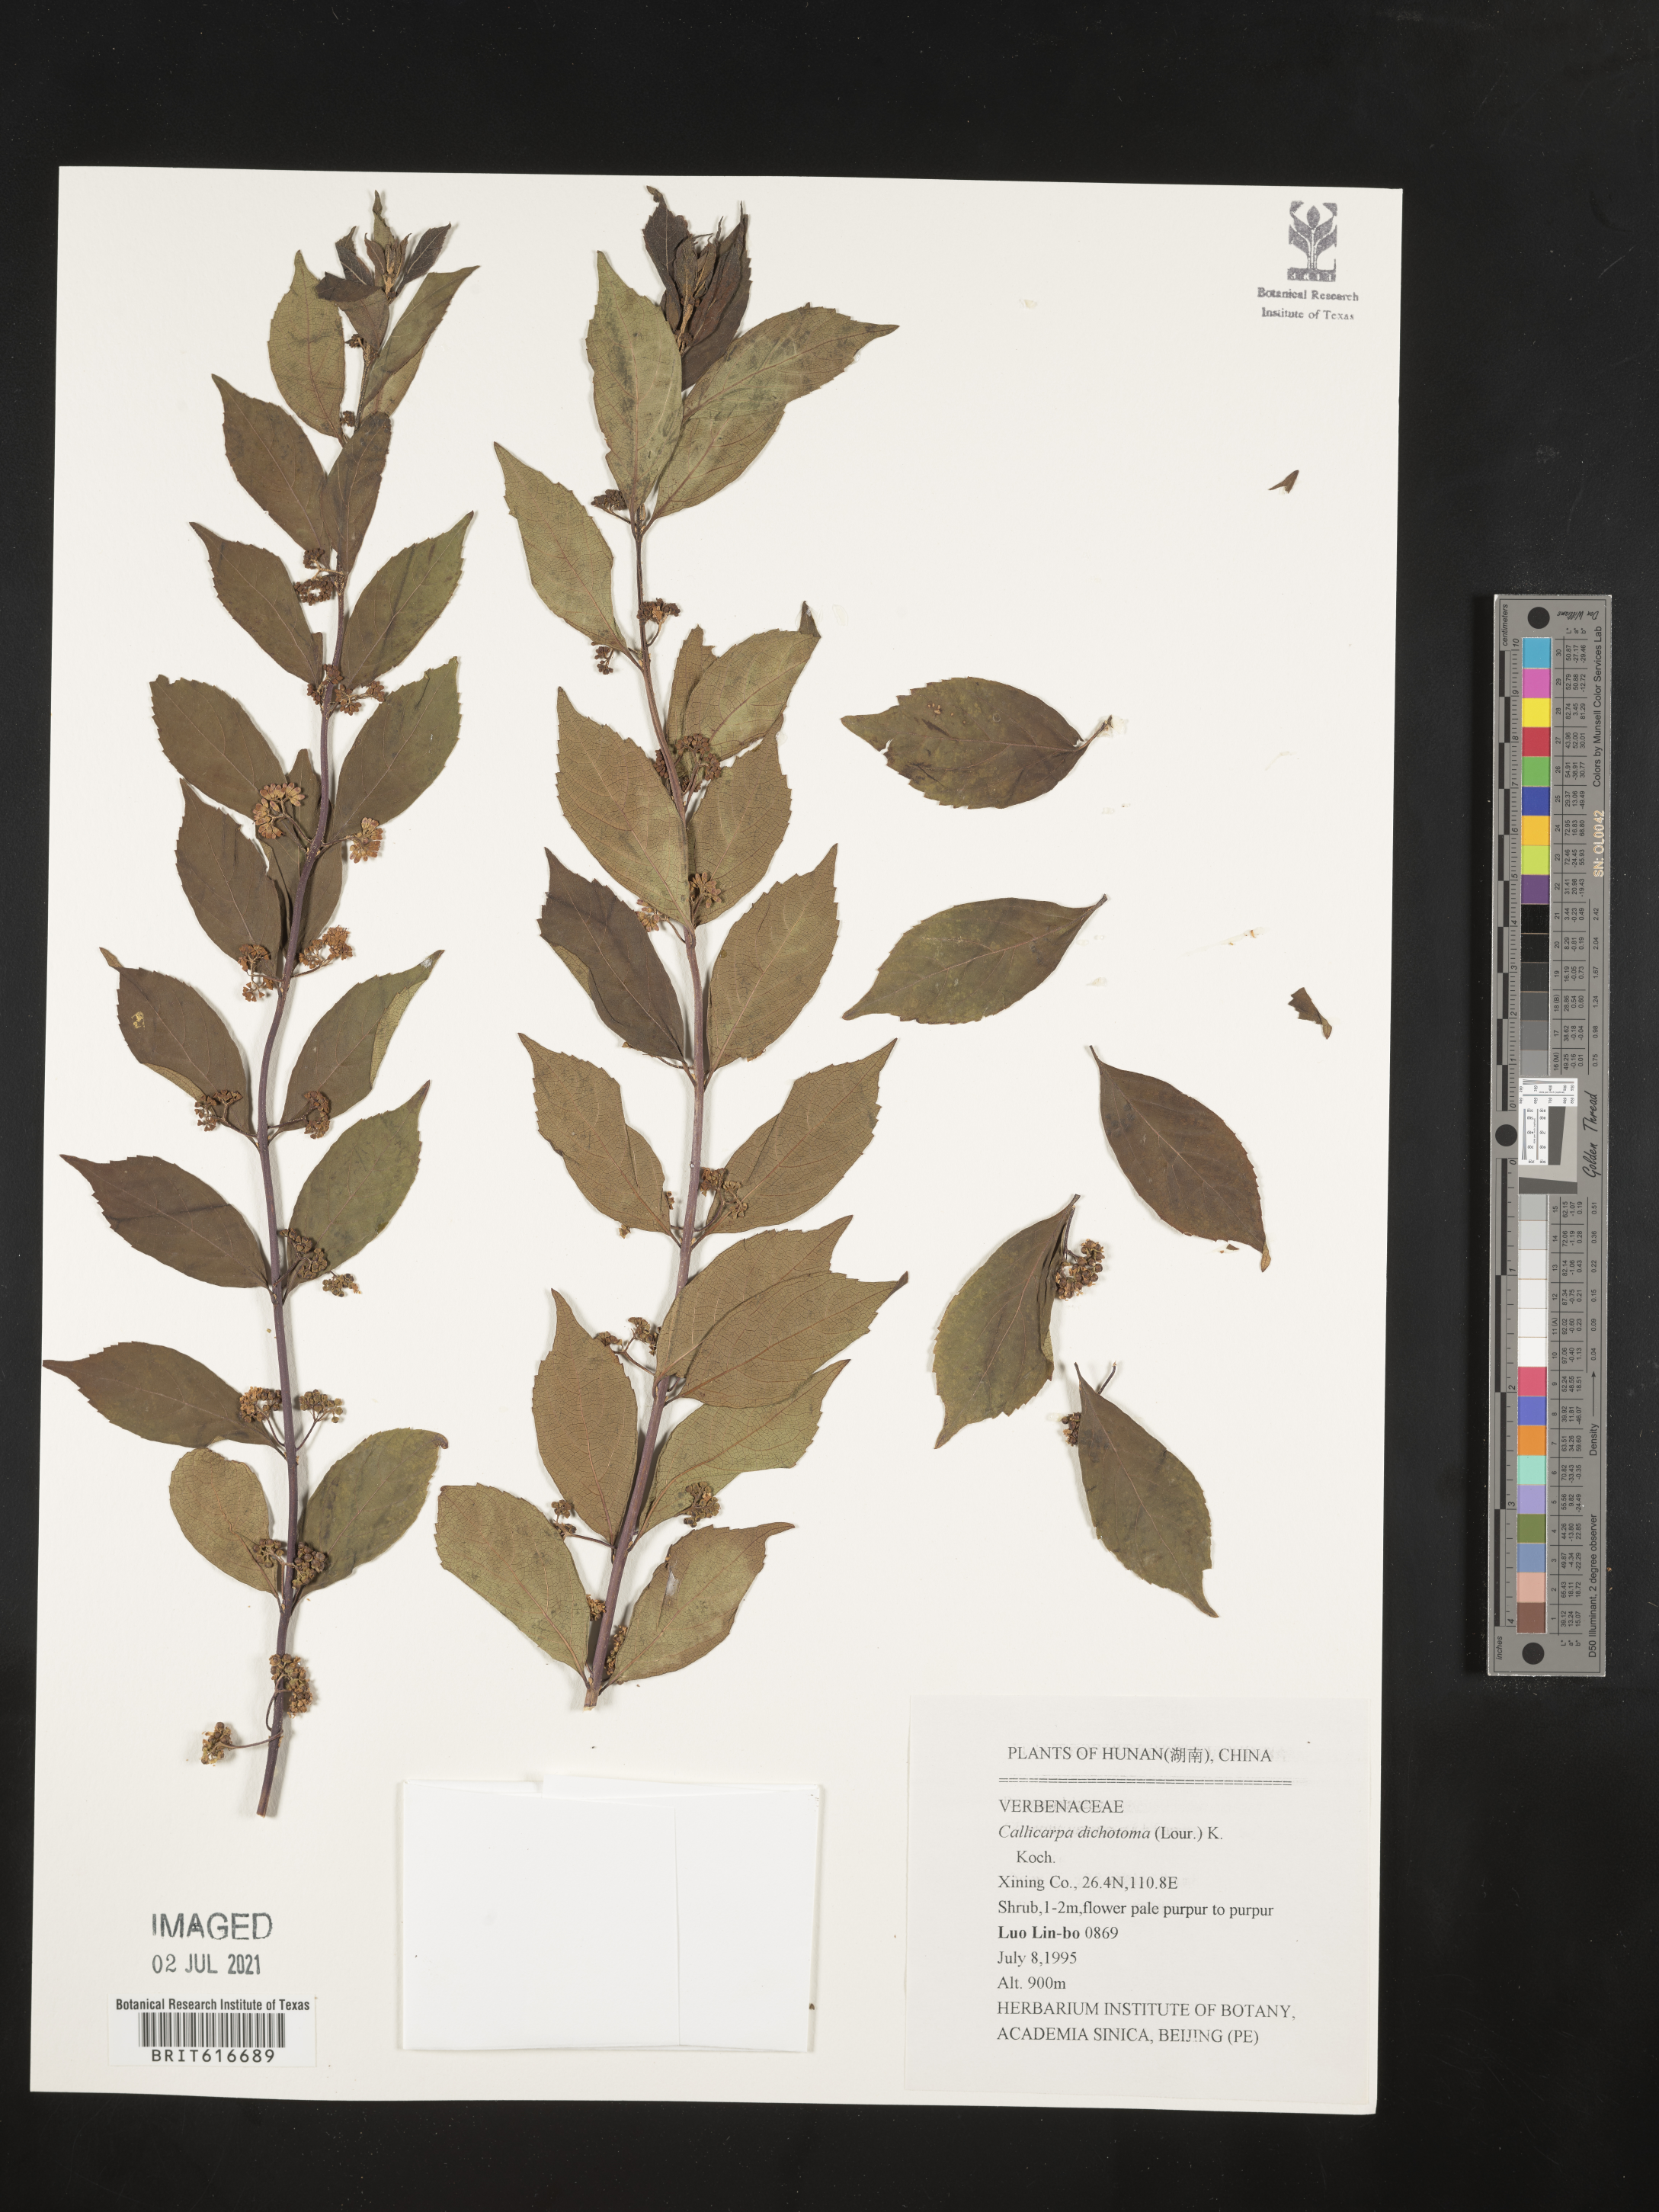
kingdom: Plantae
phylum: Tracheophyta
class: Magnoliopsida
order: Lamiales
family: Lamiaceae
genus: Callicarpa
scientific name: Callicarpa dichotoma
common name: Purple beauty-berry
